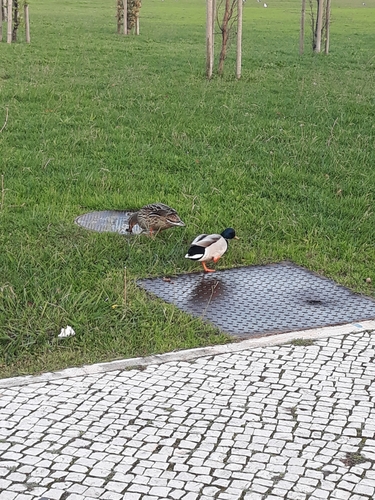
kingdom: Animalia
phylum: Chordata
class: Aves
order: Anseriformes
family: Anatidae
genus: Anas
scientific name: Anas platyrhynchos
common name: Mallard
